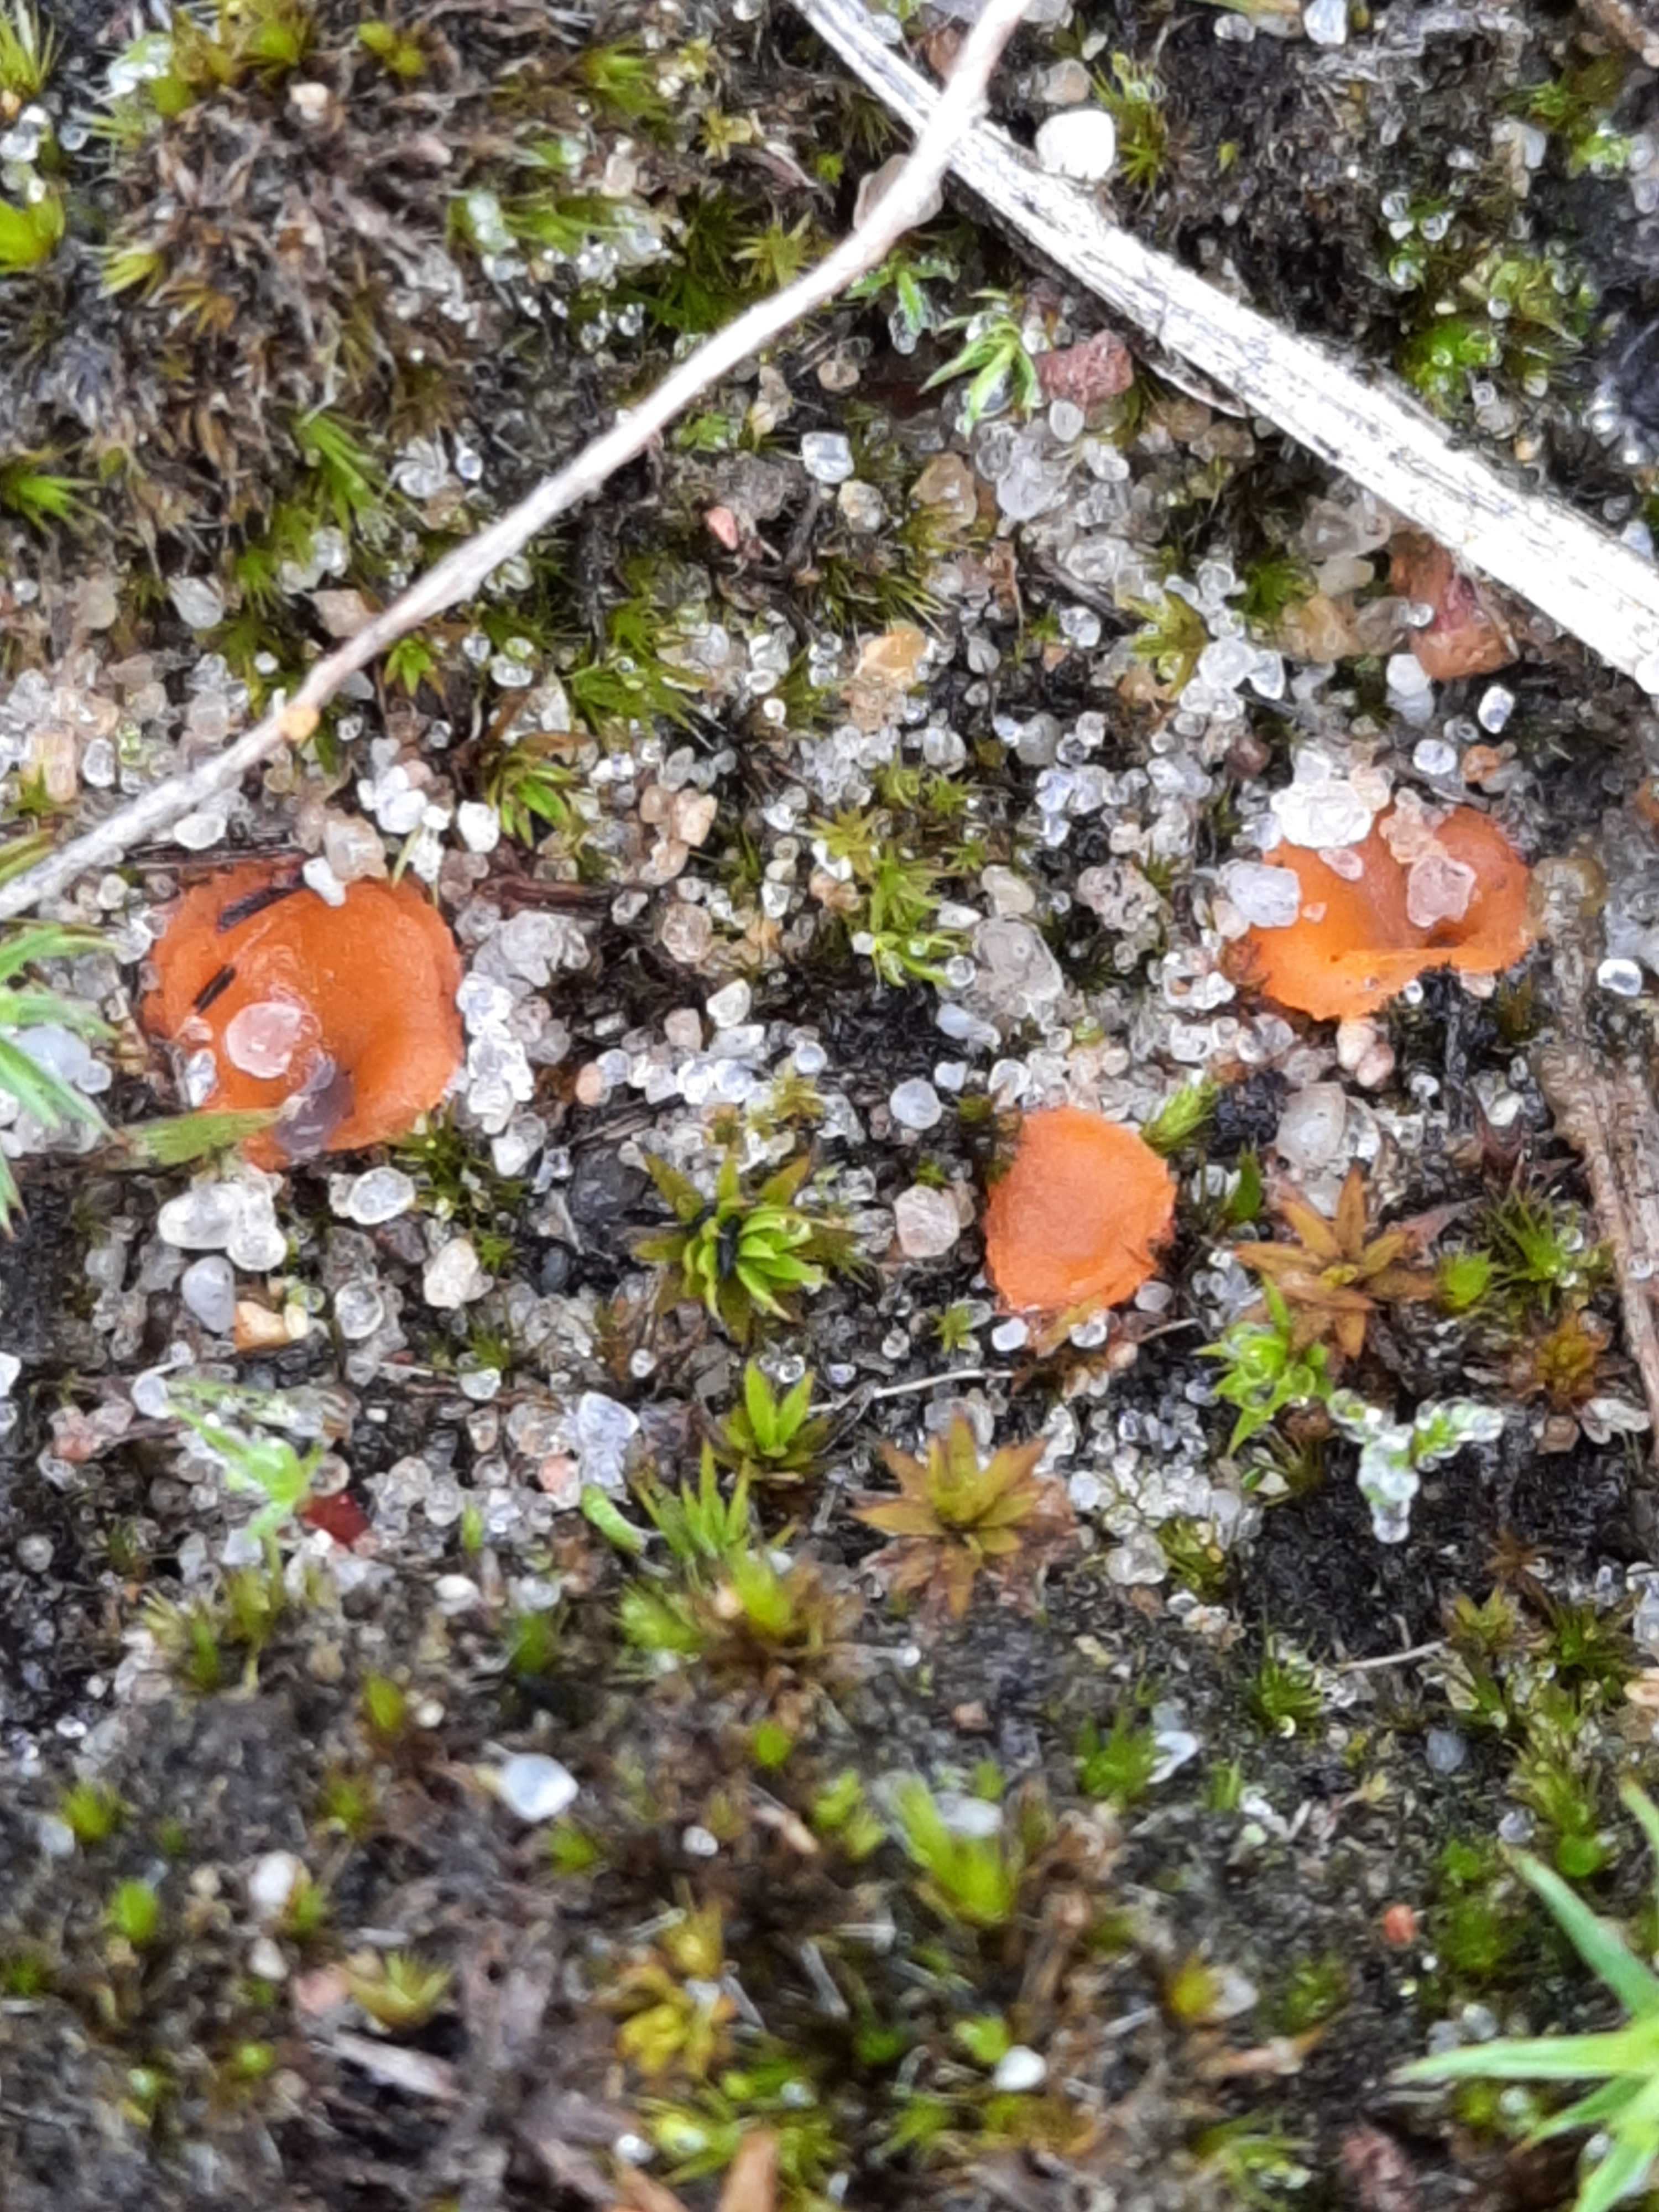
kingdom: Fungi
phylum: Ascomycota
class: Pezizomycetes
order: Pezizales
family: Pyronemataceae
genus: Neottiella
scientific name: Neottiella
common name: mosbæger
